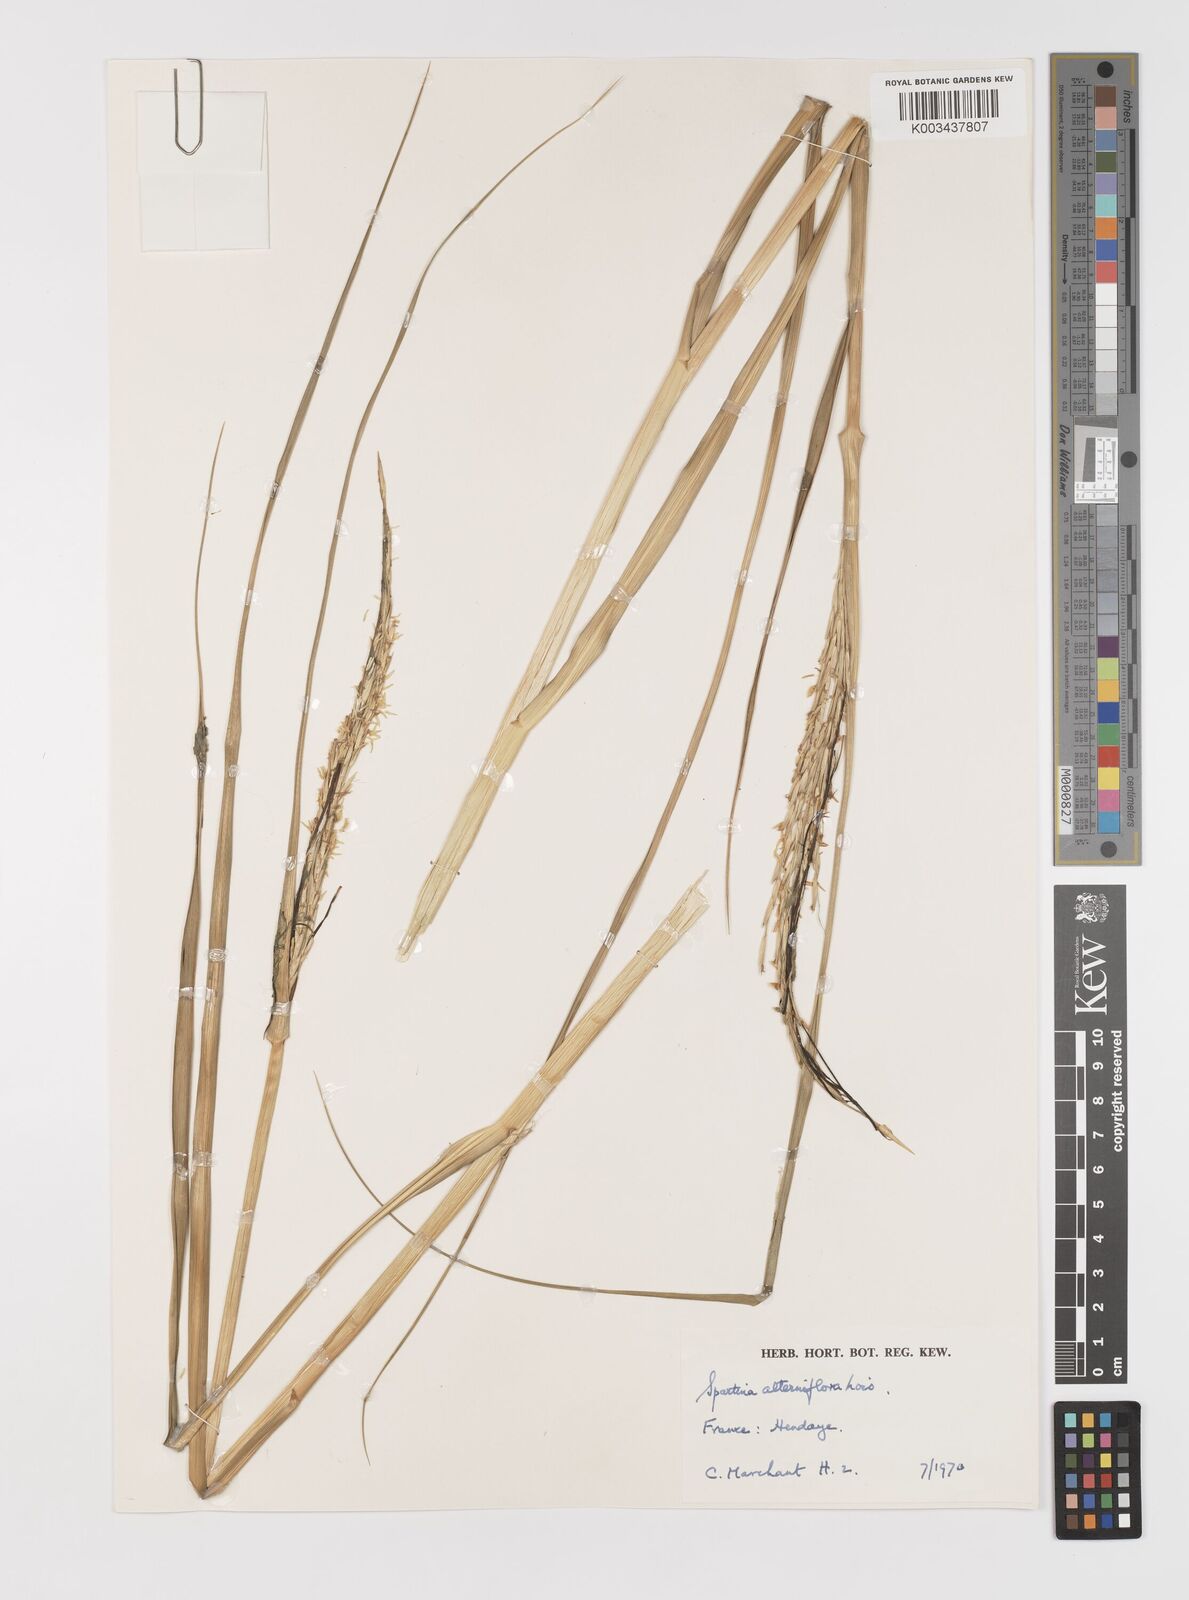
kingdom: Plantae
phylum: Tracheophyta
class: Liliopsida
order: Poales
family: Poaceae
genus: Sporobolus
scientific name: Sporobolus alterniflorus
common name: Atlantic cordgrass
